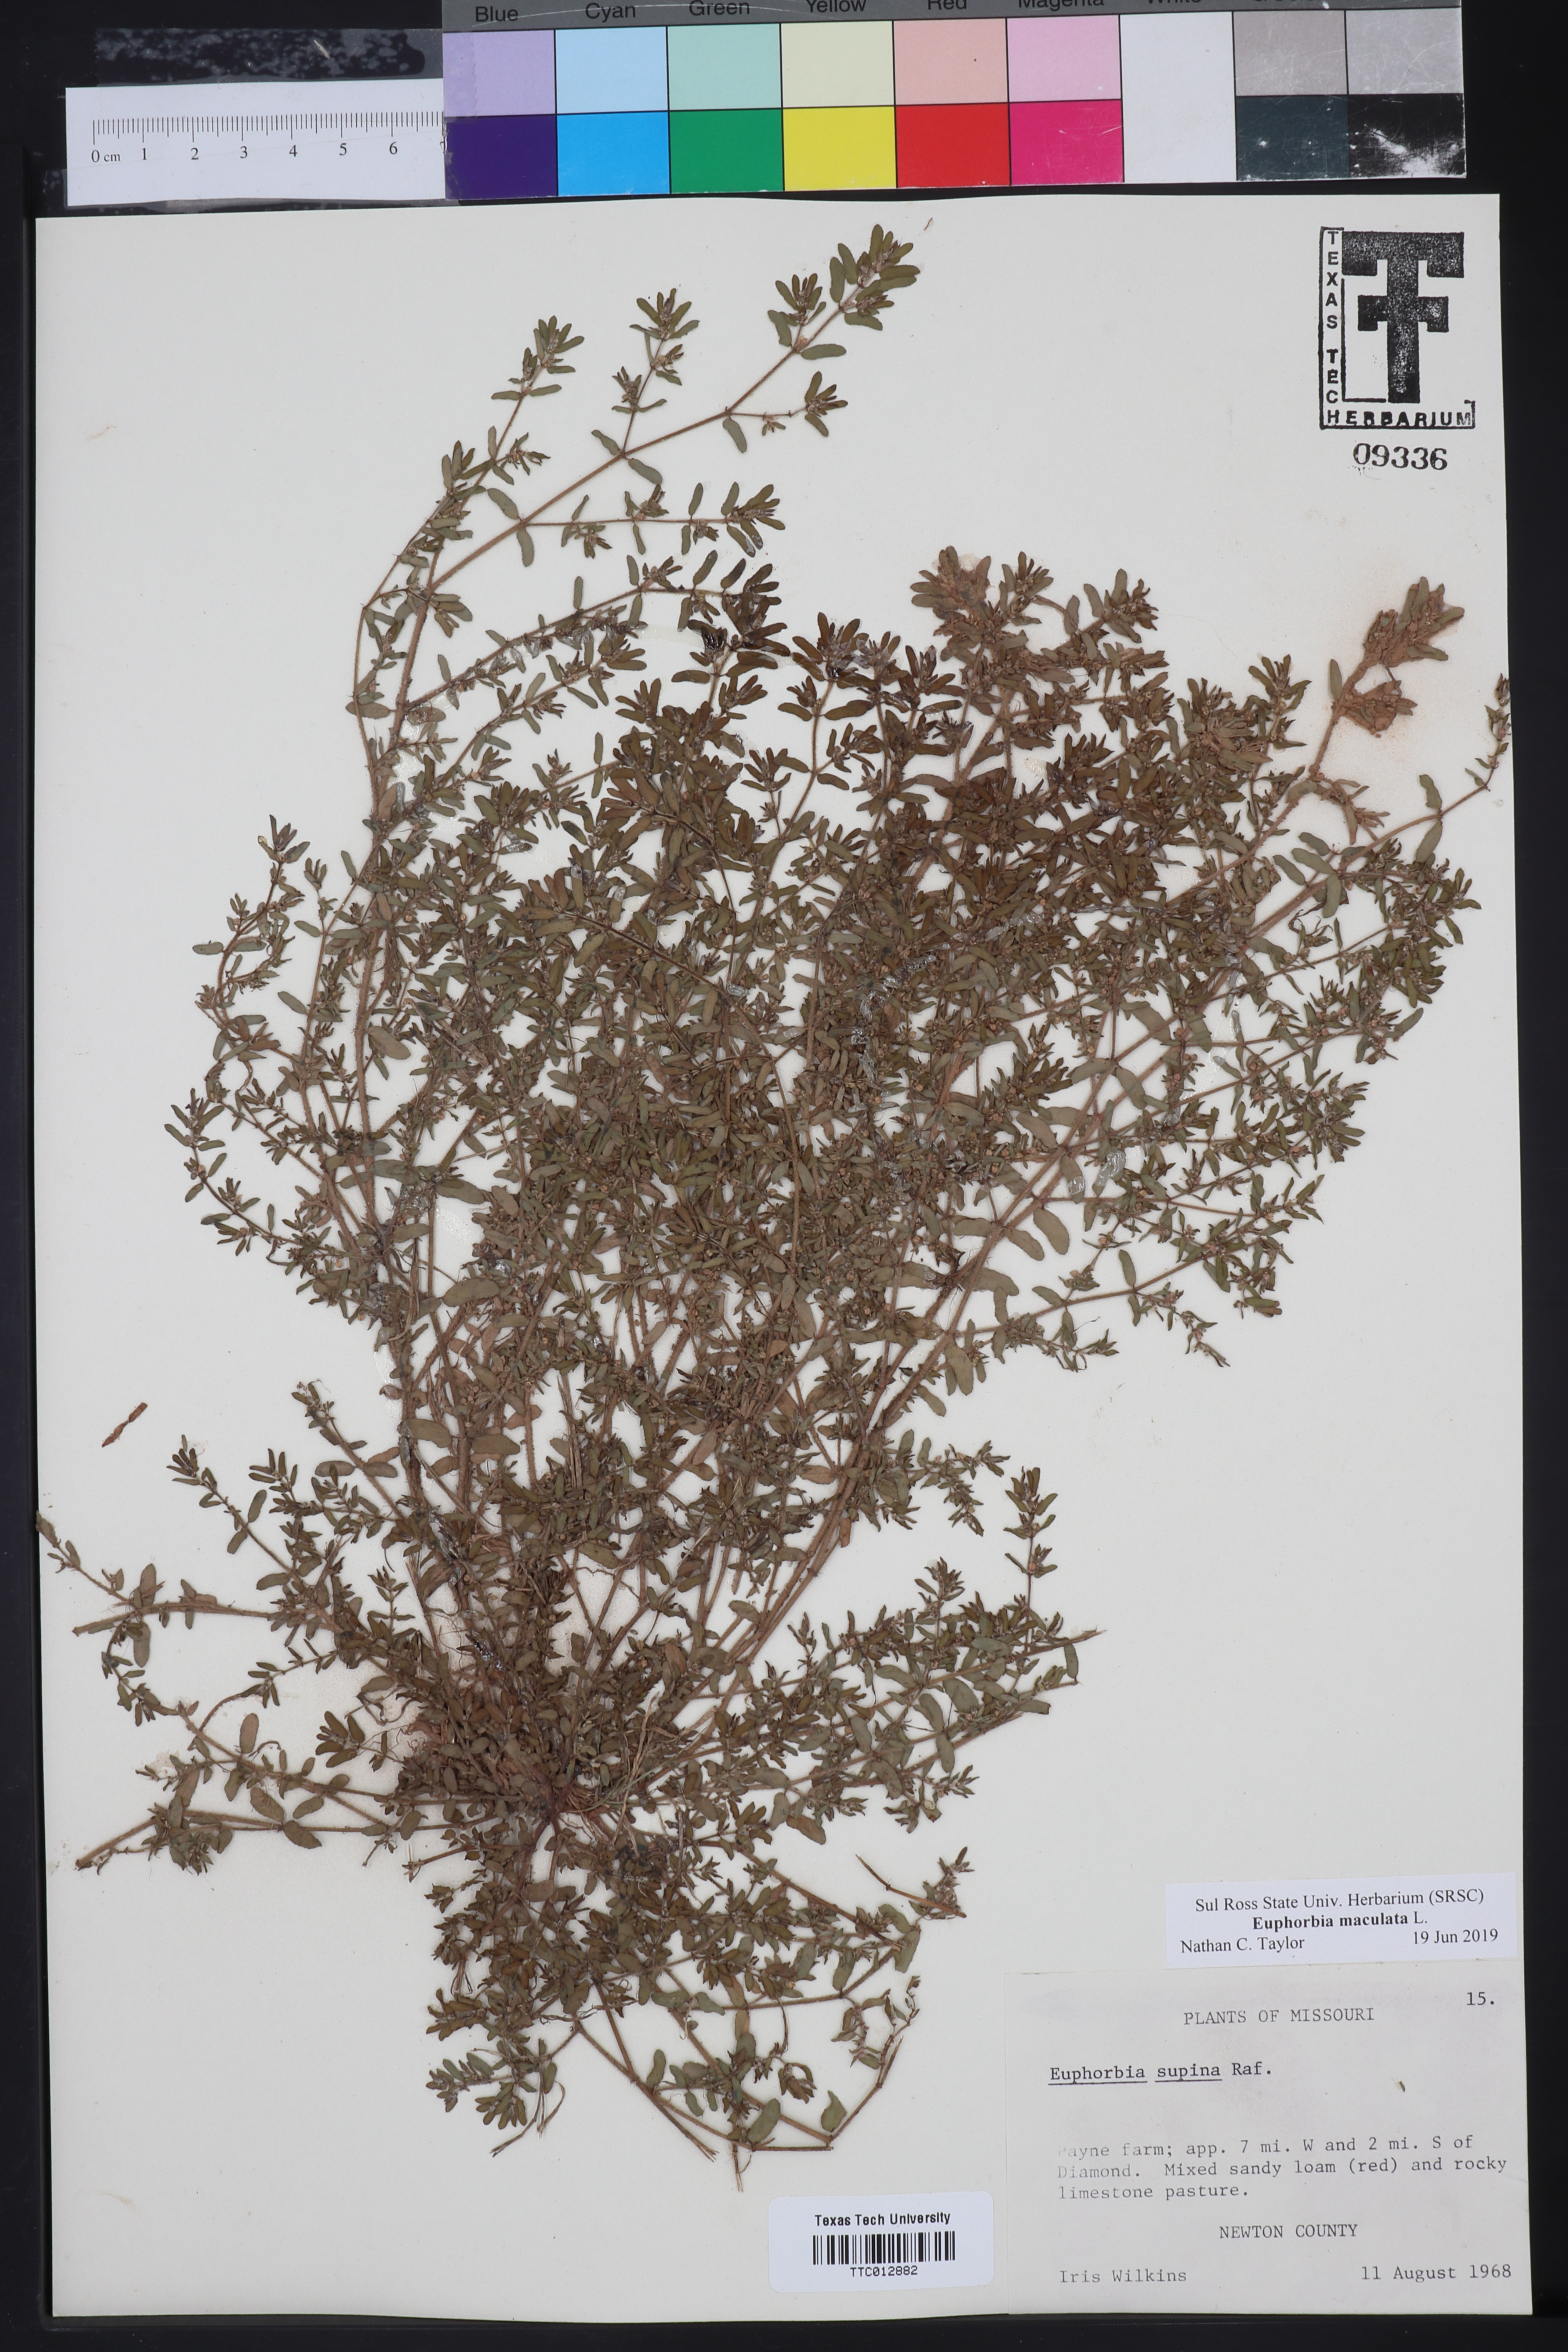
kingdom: Plantae
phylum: Tracheophyta
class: Magnoliopsida
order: Malpighiales
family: Euphorbiaceae
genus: Euphorbia
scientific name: Euphorbia maculata
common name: Spotted spurge
